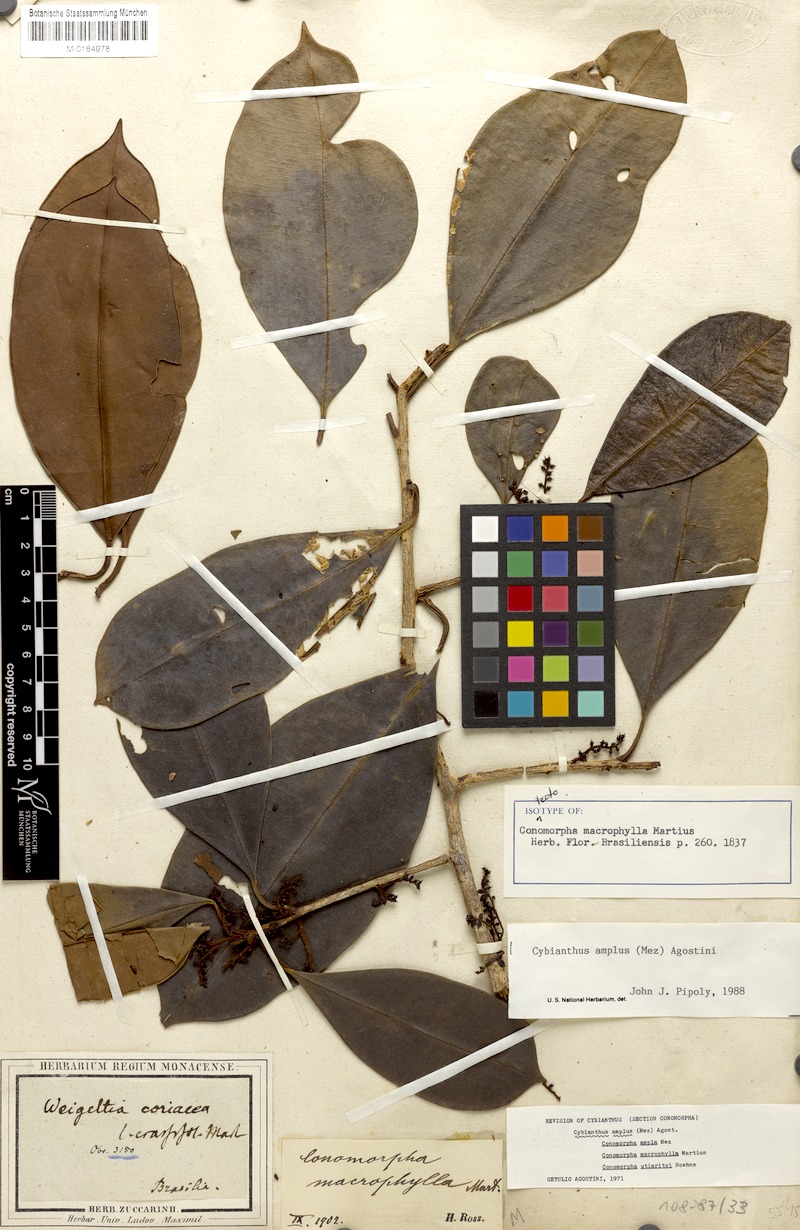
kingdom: Plantae
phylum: Tracheophyta
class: Magnoliopsida
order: Ericales
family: Primulaceae
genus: Cybianthus
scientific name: Cybianthus amplus
